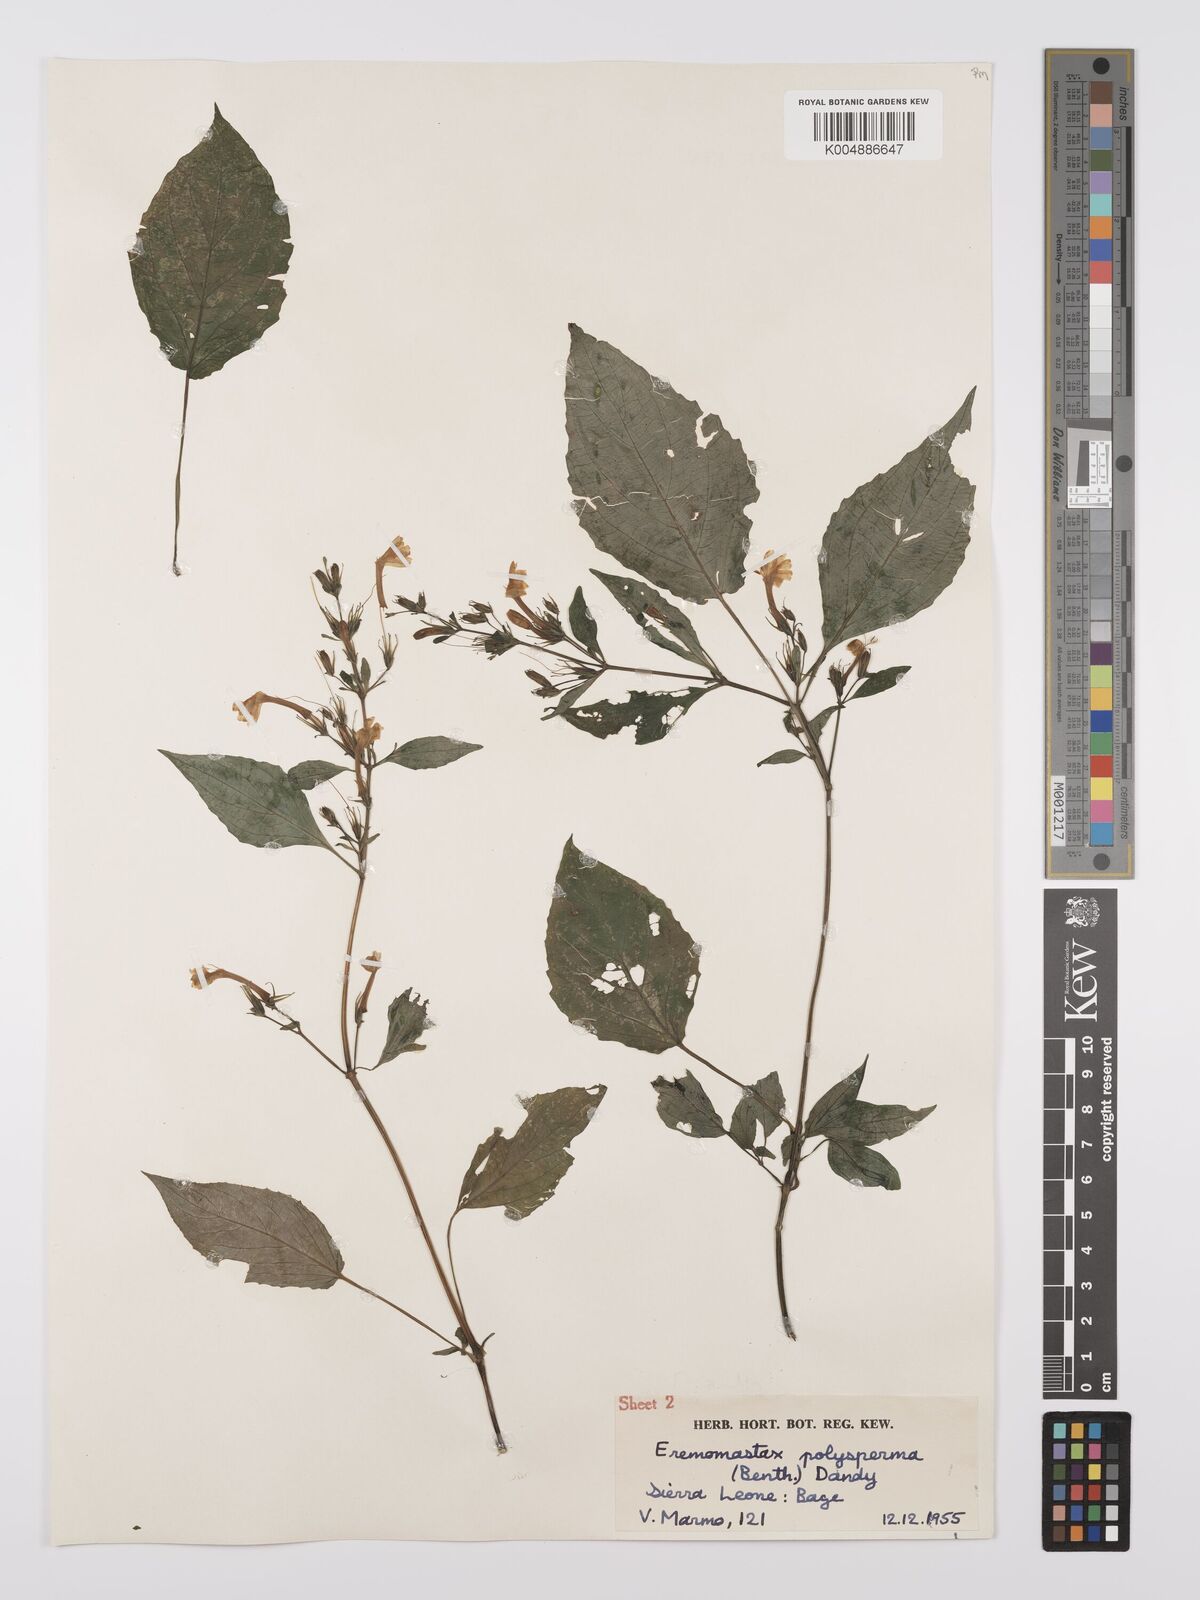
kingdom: Plantae
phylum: Tracheophyta
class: Magnoliopsida
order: Lamiales
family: Acanthaceae
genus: Eremomastax
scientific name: Eremomastax speciosa
